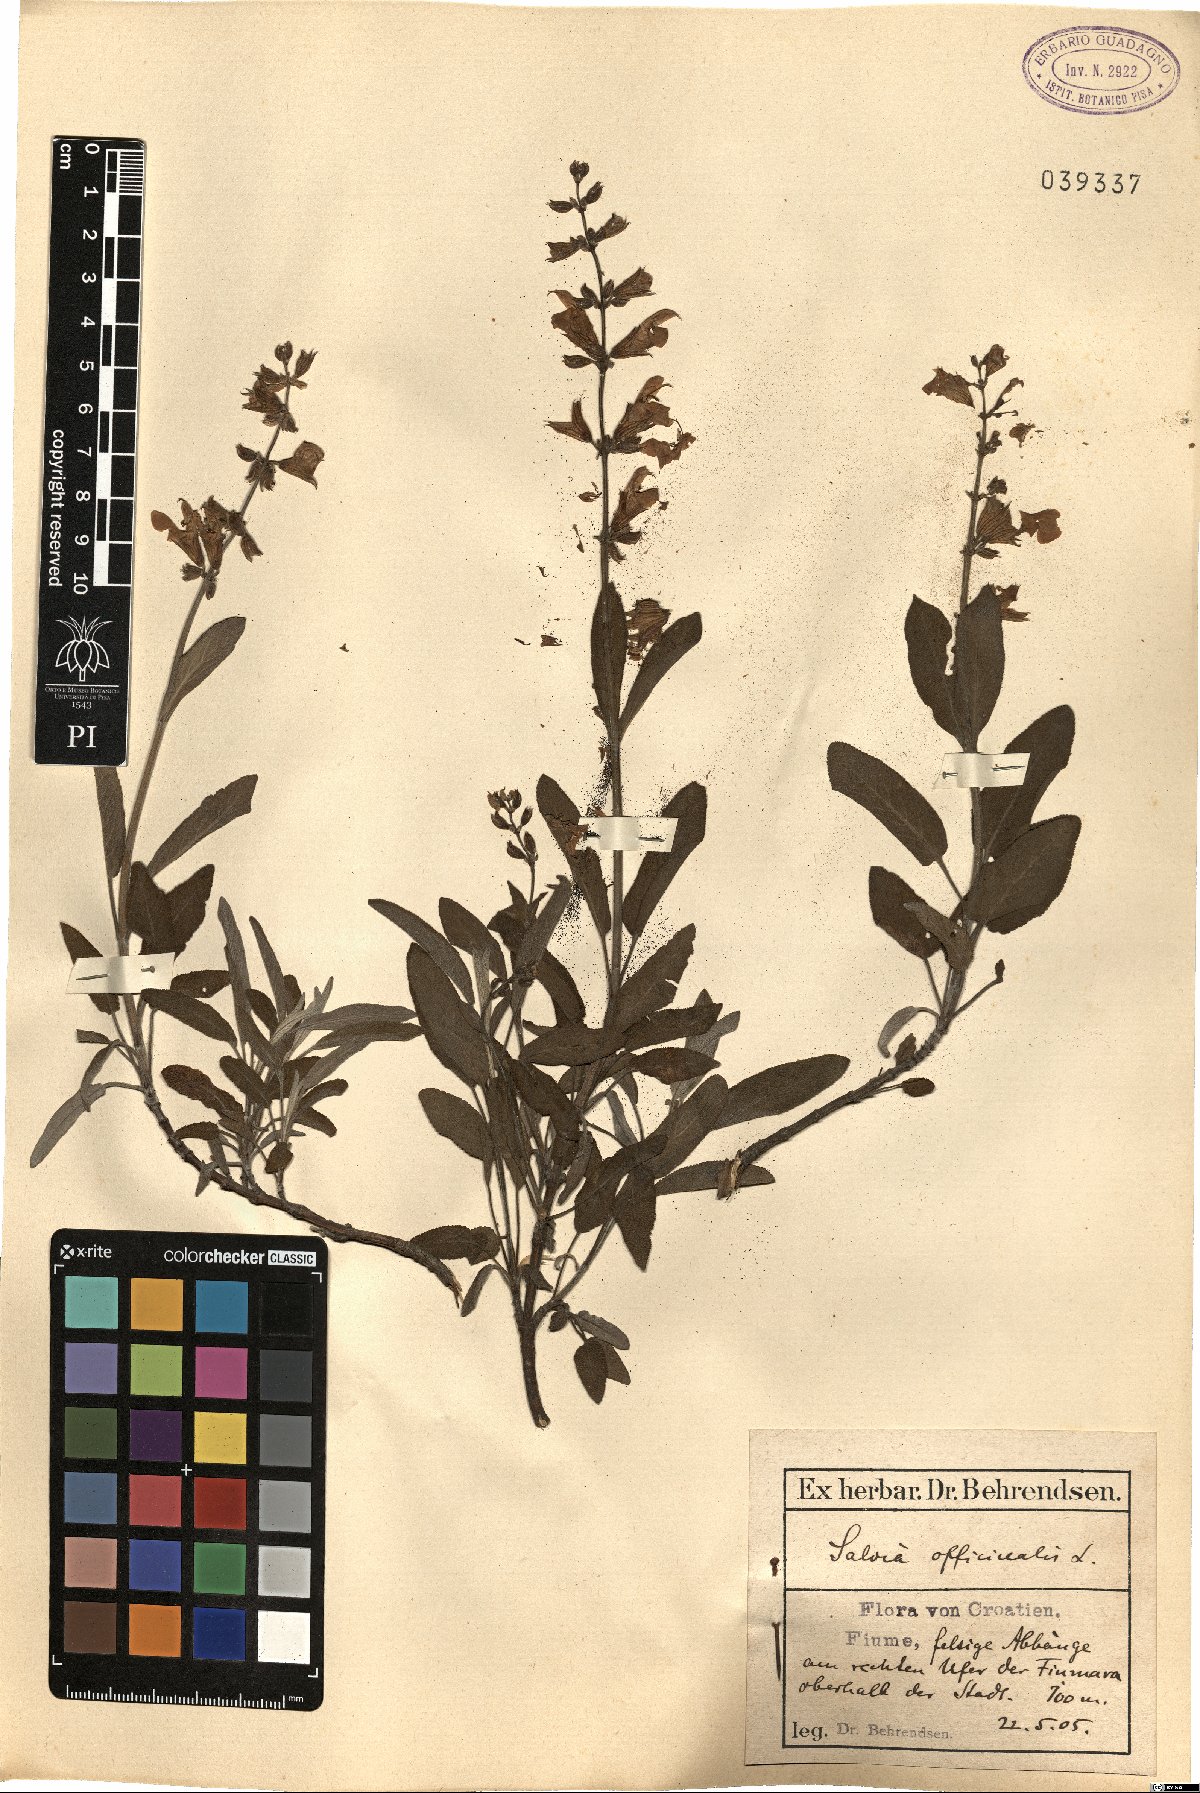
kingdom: Plantae
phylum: Tracheophyta
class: Magnoliopsida
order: Lamiales
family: Lamiaceae
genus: Salvia
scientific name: Salvia officinalis
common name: Sage
